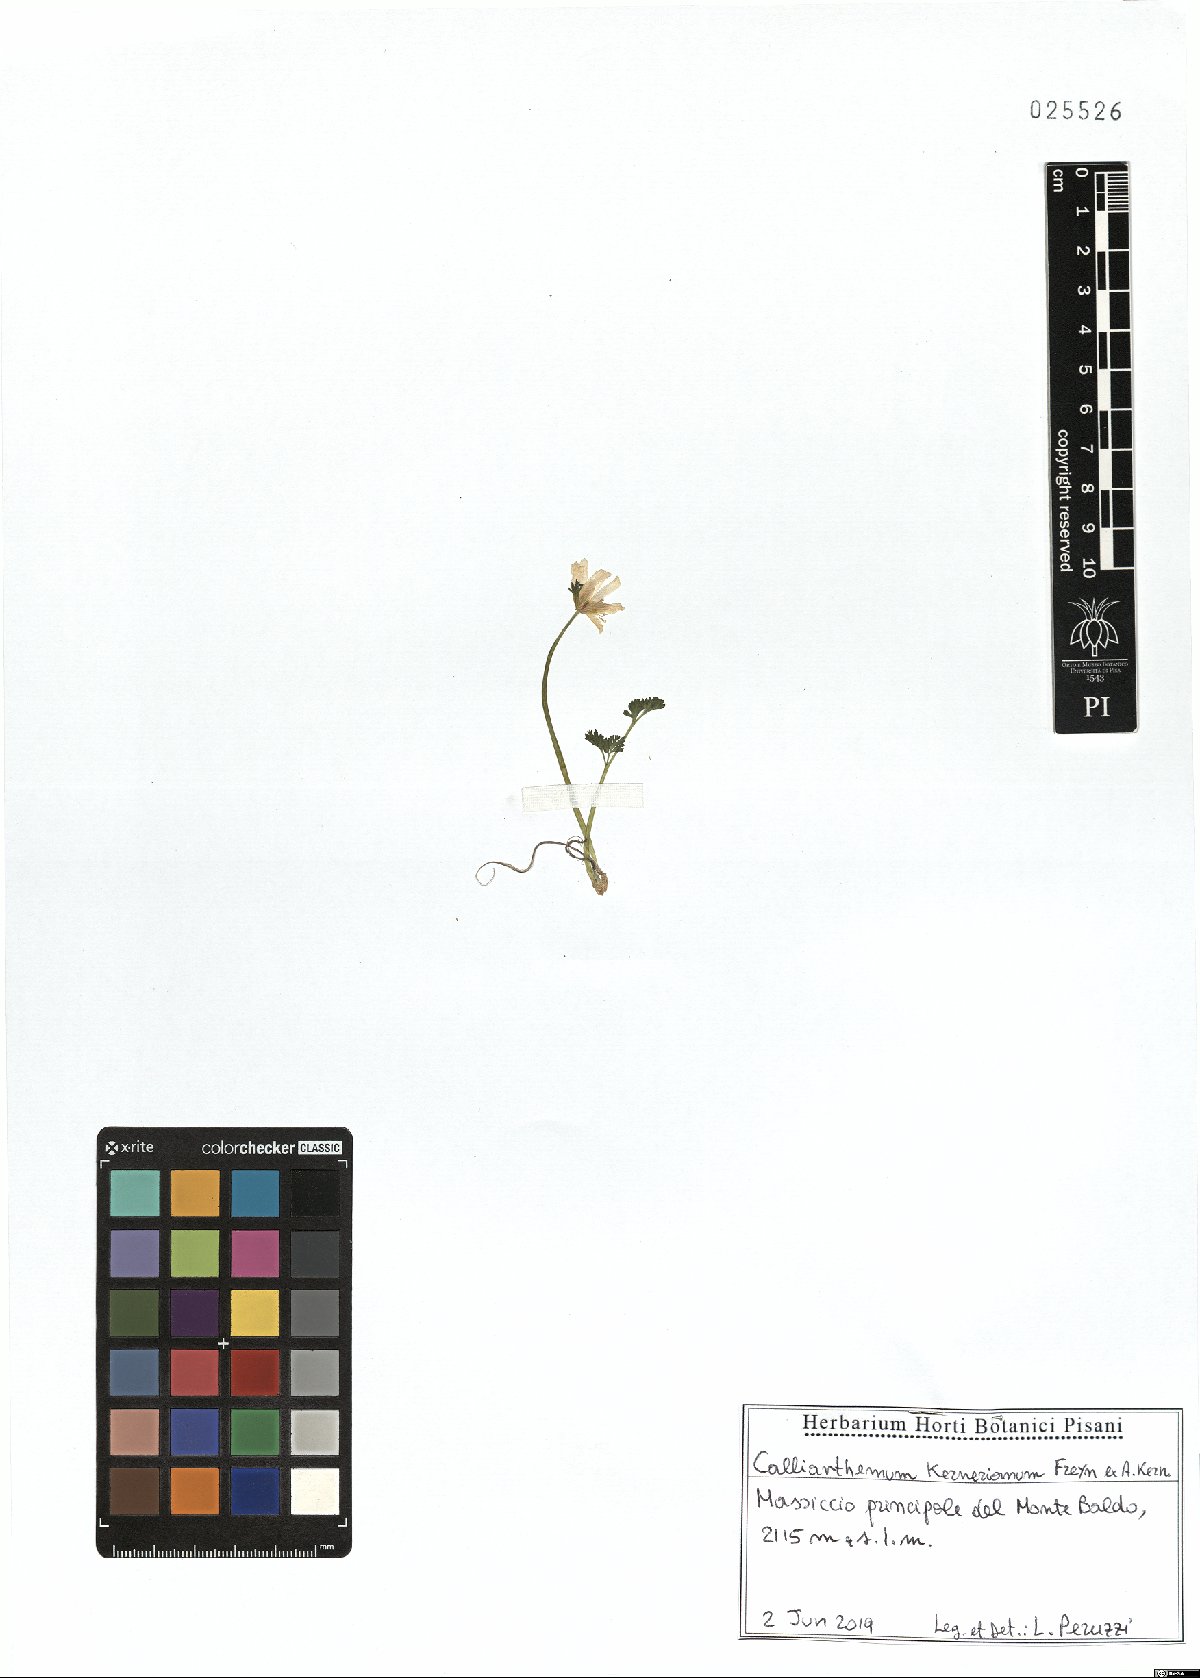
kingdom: Plantae
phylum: Tracheophyta
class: Magnoliopsida
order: Ranunculales
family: Ranunculaceae
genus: Callianthemum
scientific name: Callianthemum kernerianum
